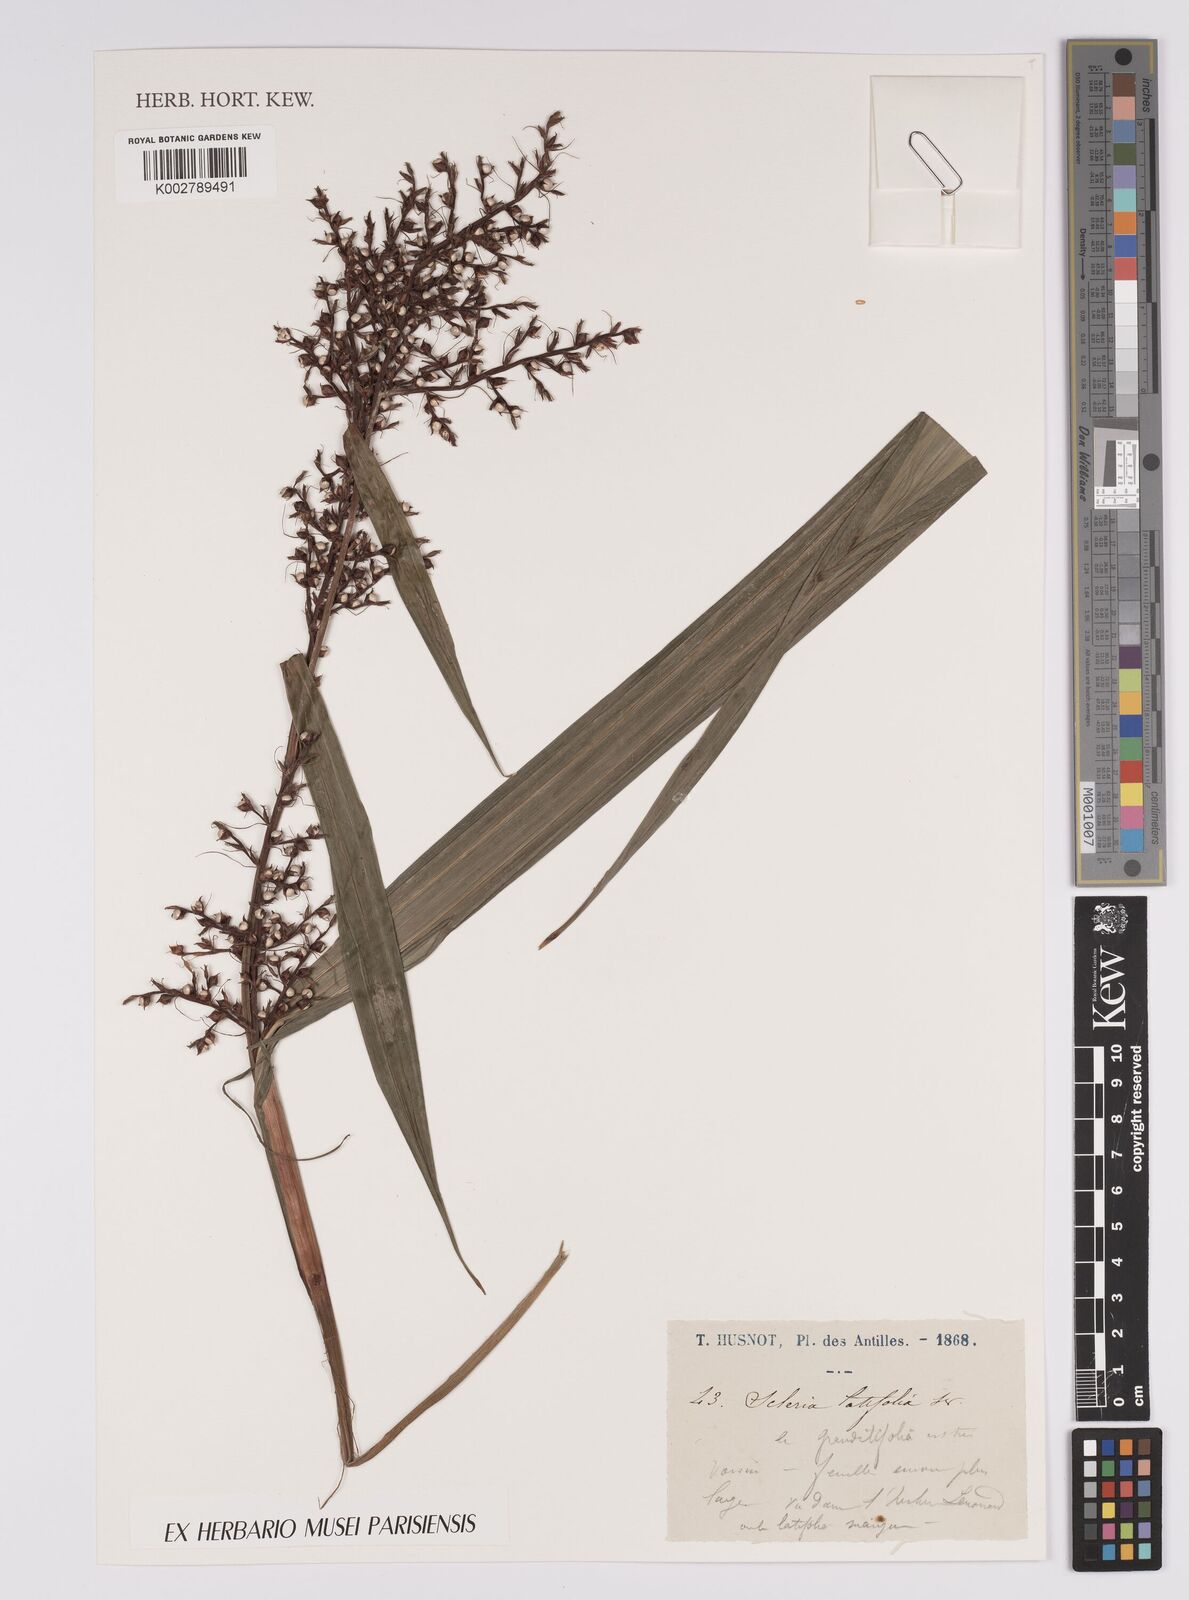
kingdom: Plantae
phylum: Tracheophyta
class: Liliopsida
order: Poales
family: Cyperaceae
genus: Scleria
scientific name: Scleria latifolia
